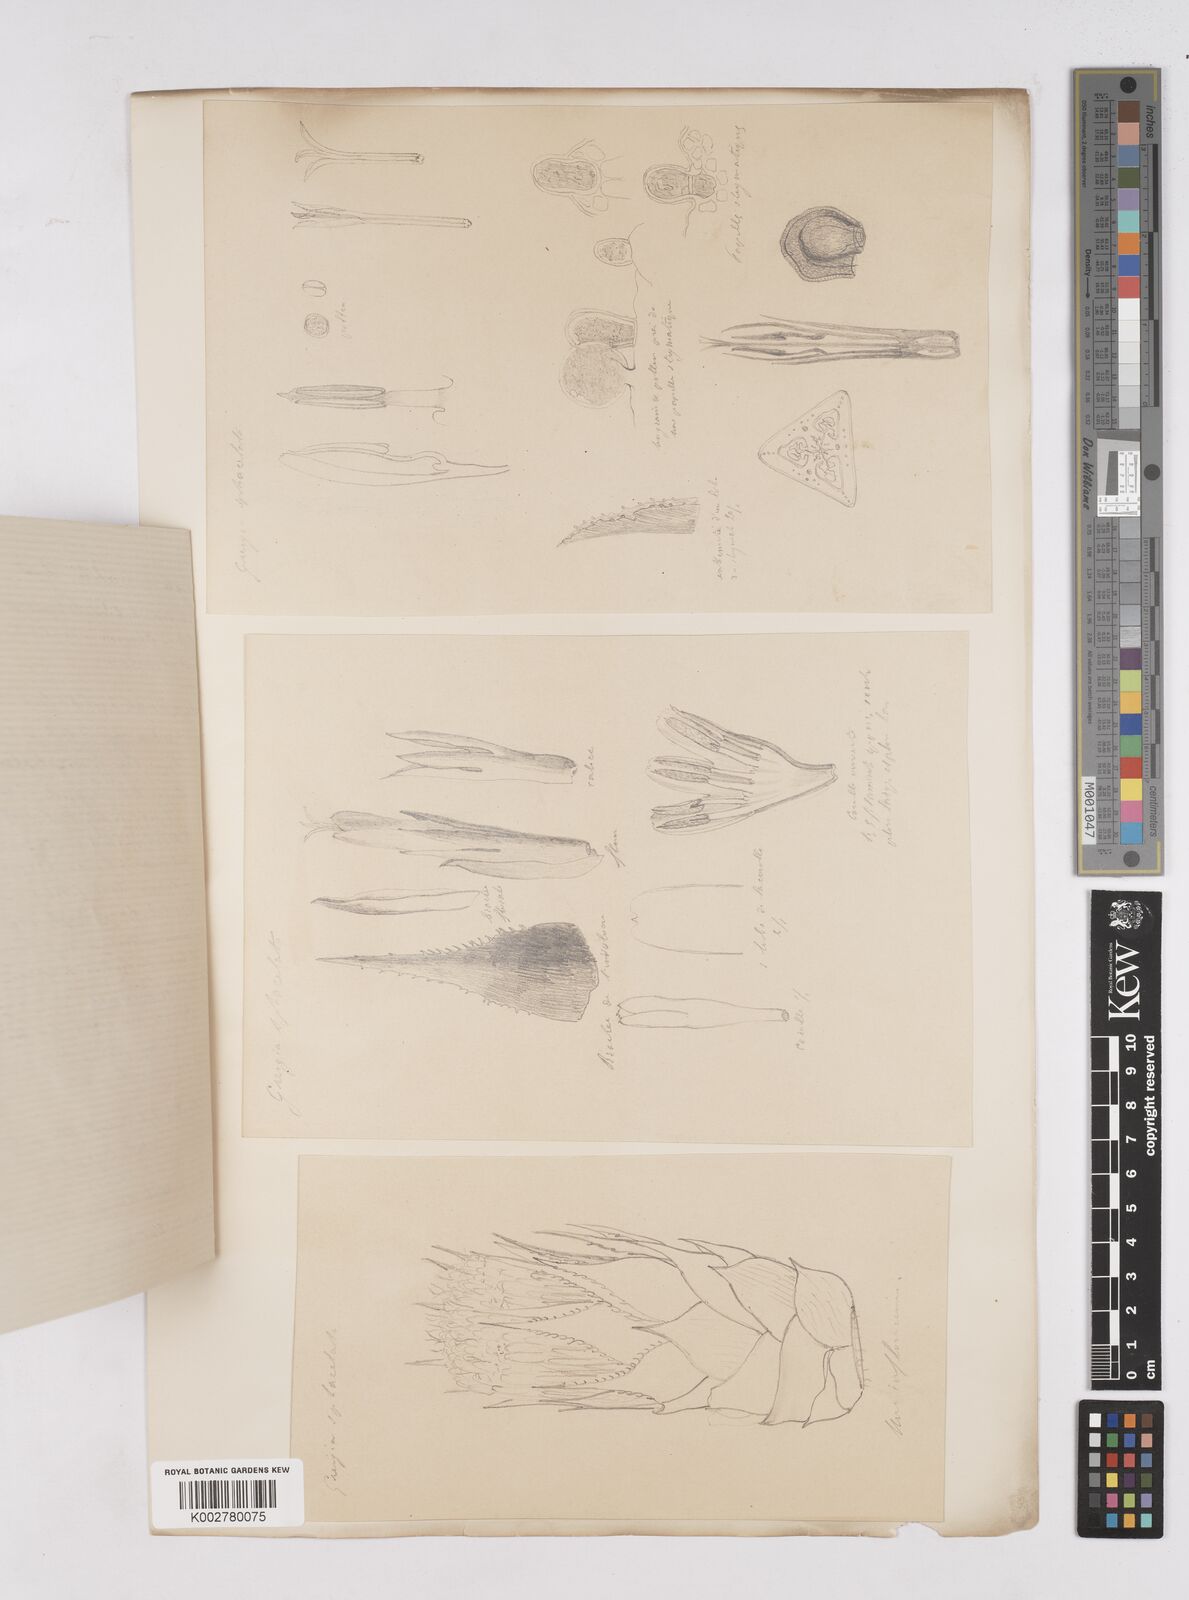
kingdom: Plantae
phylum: Tracheophyta
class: Liliopsida
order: Poales
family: Bromeliaceae
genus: Greigia
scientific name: Greigia
